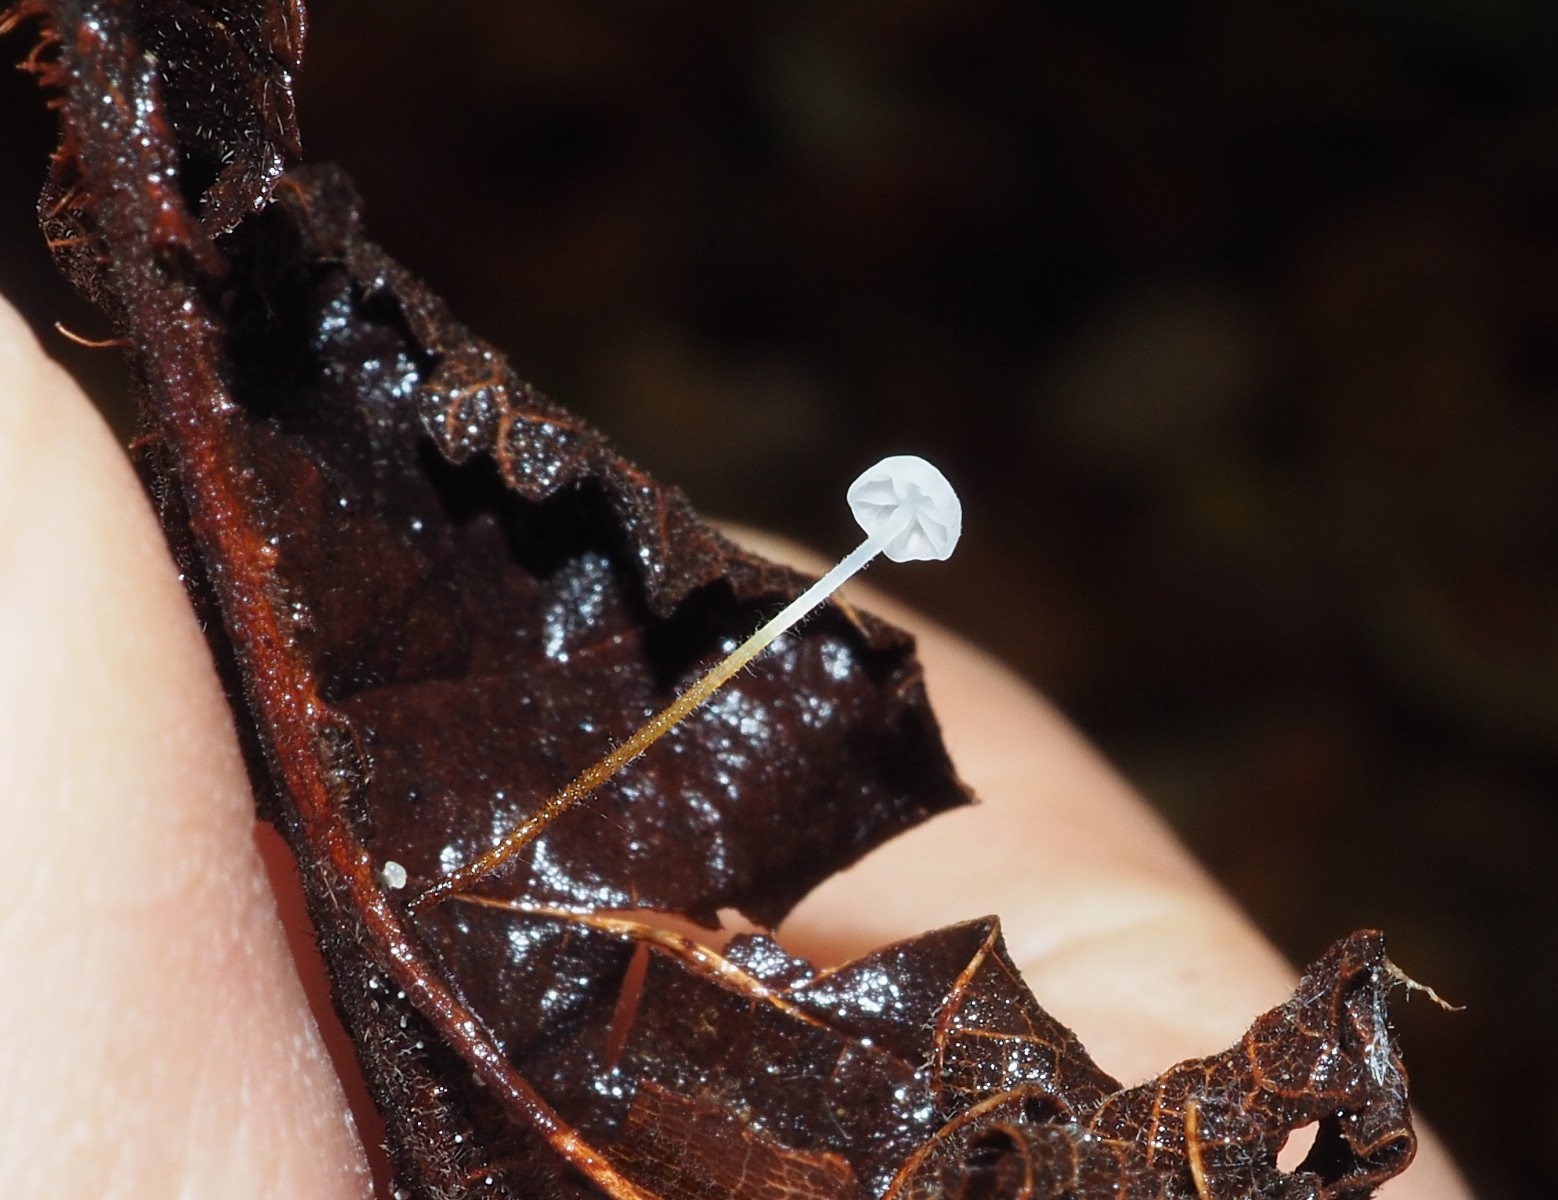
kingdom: Fungi
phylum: Basidiomycota
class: Agaricomycetes
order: Agaricales
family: Physalacriaceae
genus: Rhizomarasmius
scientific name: Rhizomarasmius setosus
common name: bøgeblads-bruskhat
